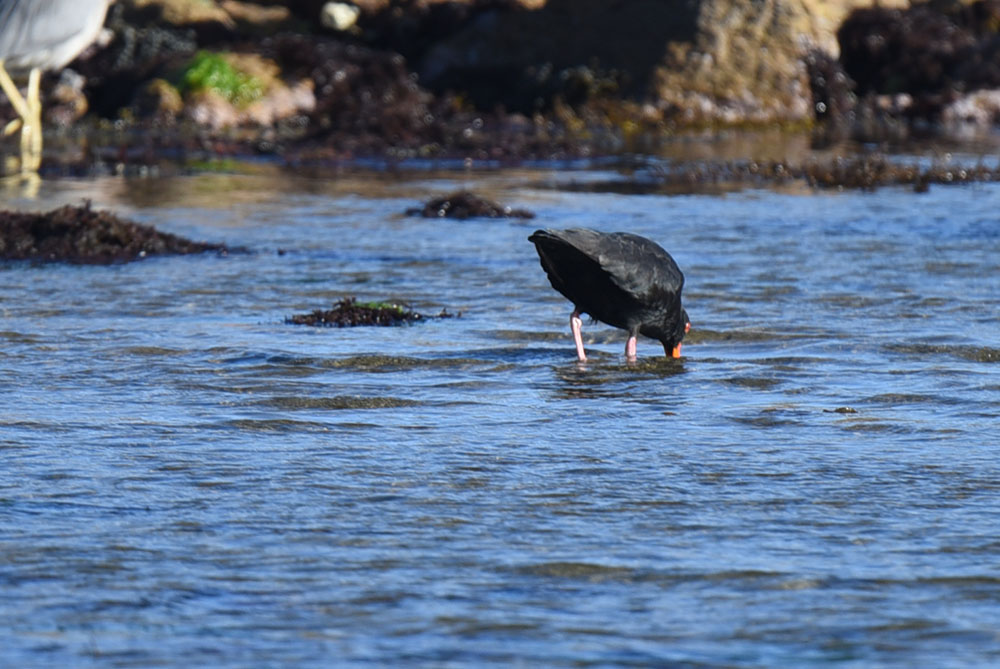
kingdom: Animalia
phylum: Chordata
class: Aves
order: Charadriiformes
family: Haematopodidae
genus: Haematopus
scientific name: Haematopus unicolor
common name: Variable oystercatcher
